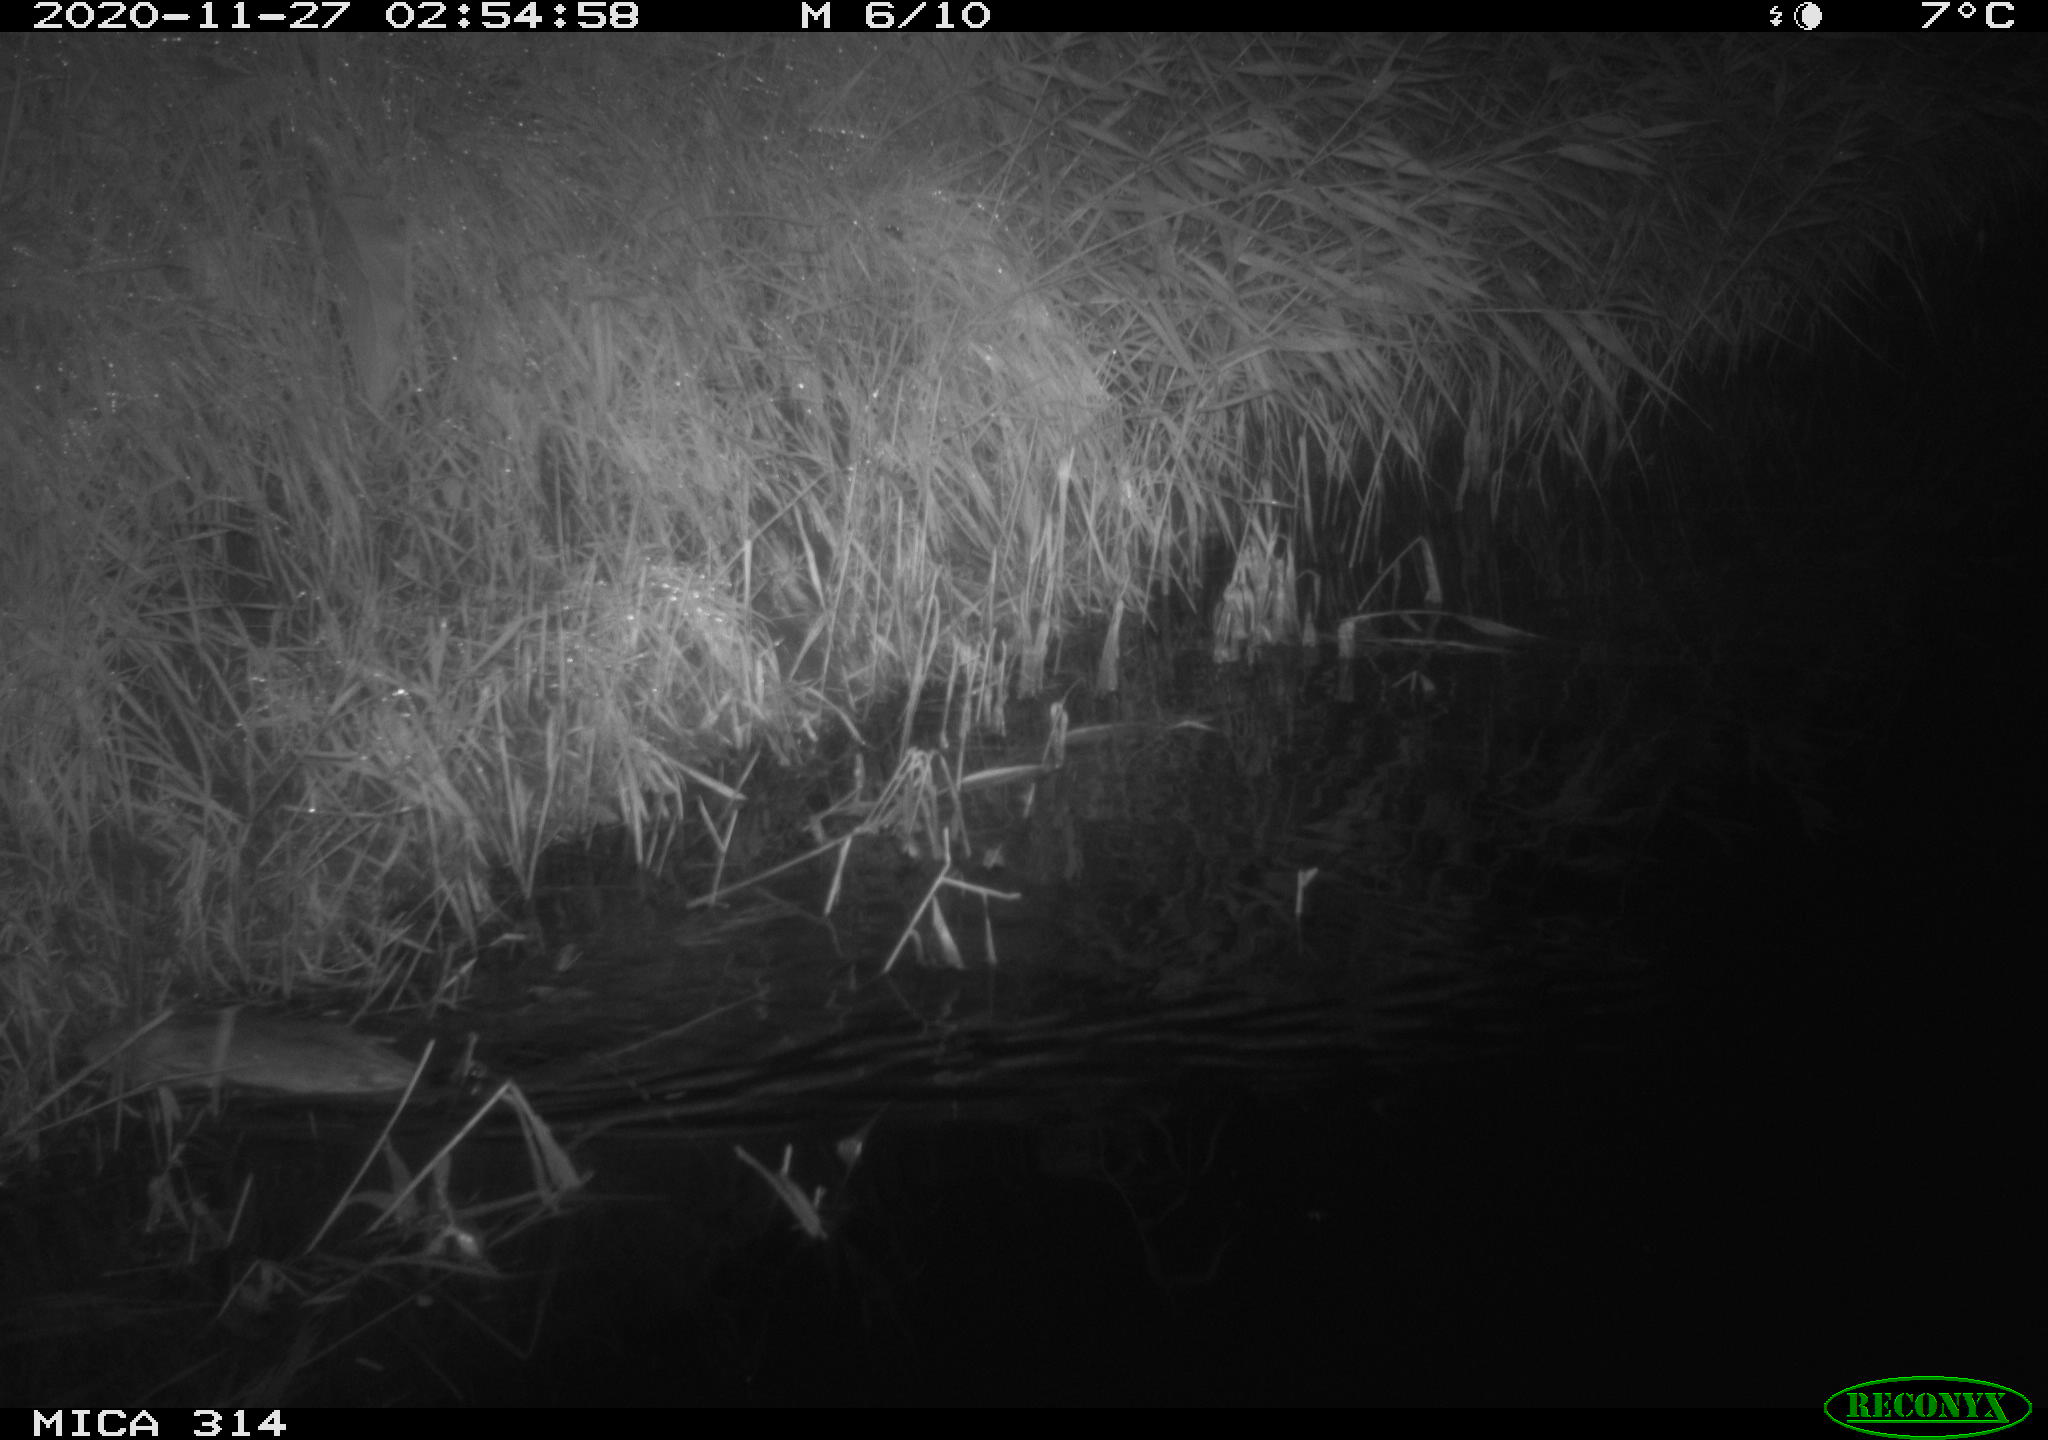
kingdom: Animalia
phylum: Chordata
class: Mammalia
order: Rodentia
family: Muridae
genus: Rattus
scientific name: Rattus norvegicus
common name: Brown rat
